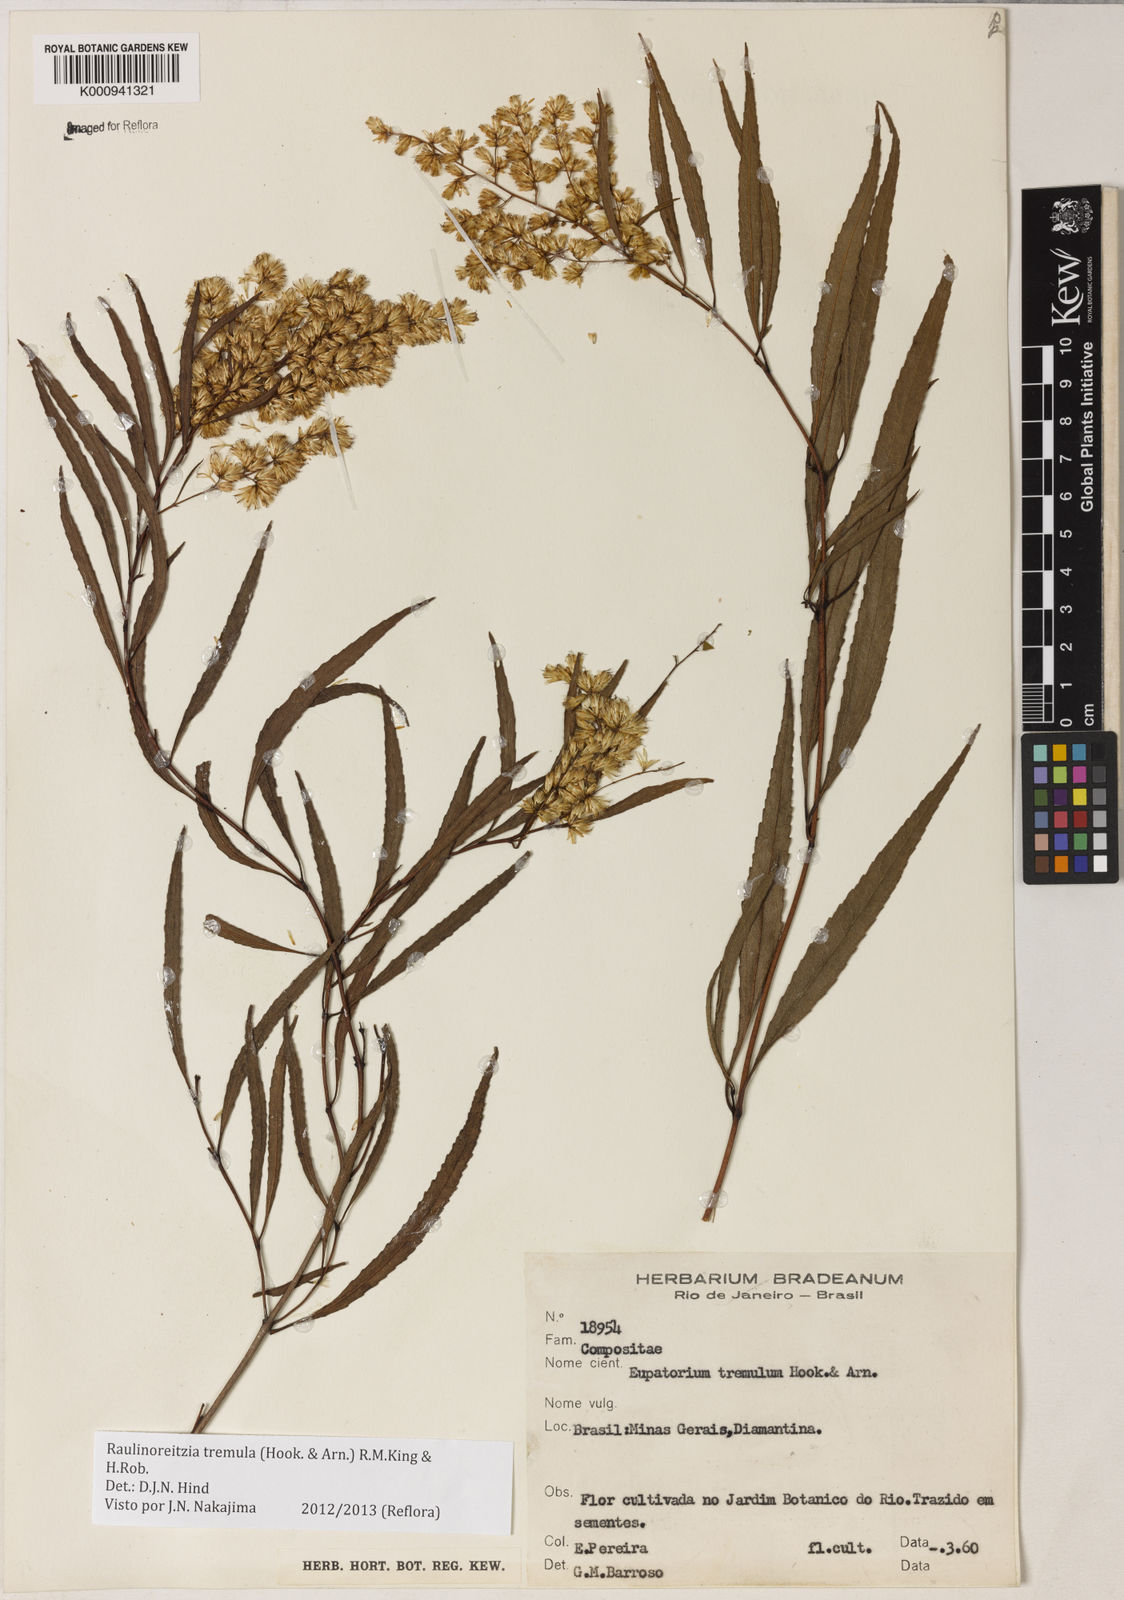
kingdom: Plantae
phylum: Tracheophyta
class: Magnoliopsida
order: Asterales
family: Asteraceae
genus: Raulinoreitzia
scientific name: Raulinoreitzia tremula
